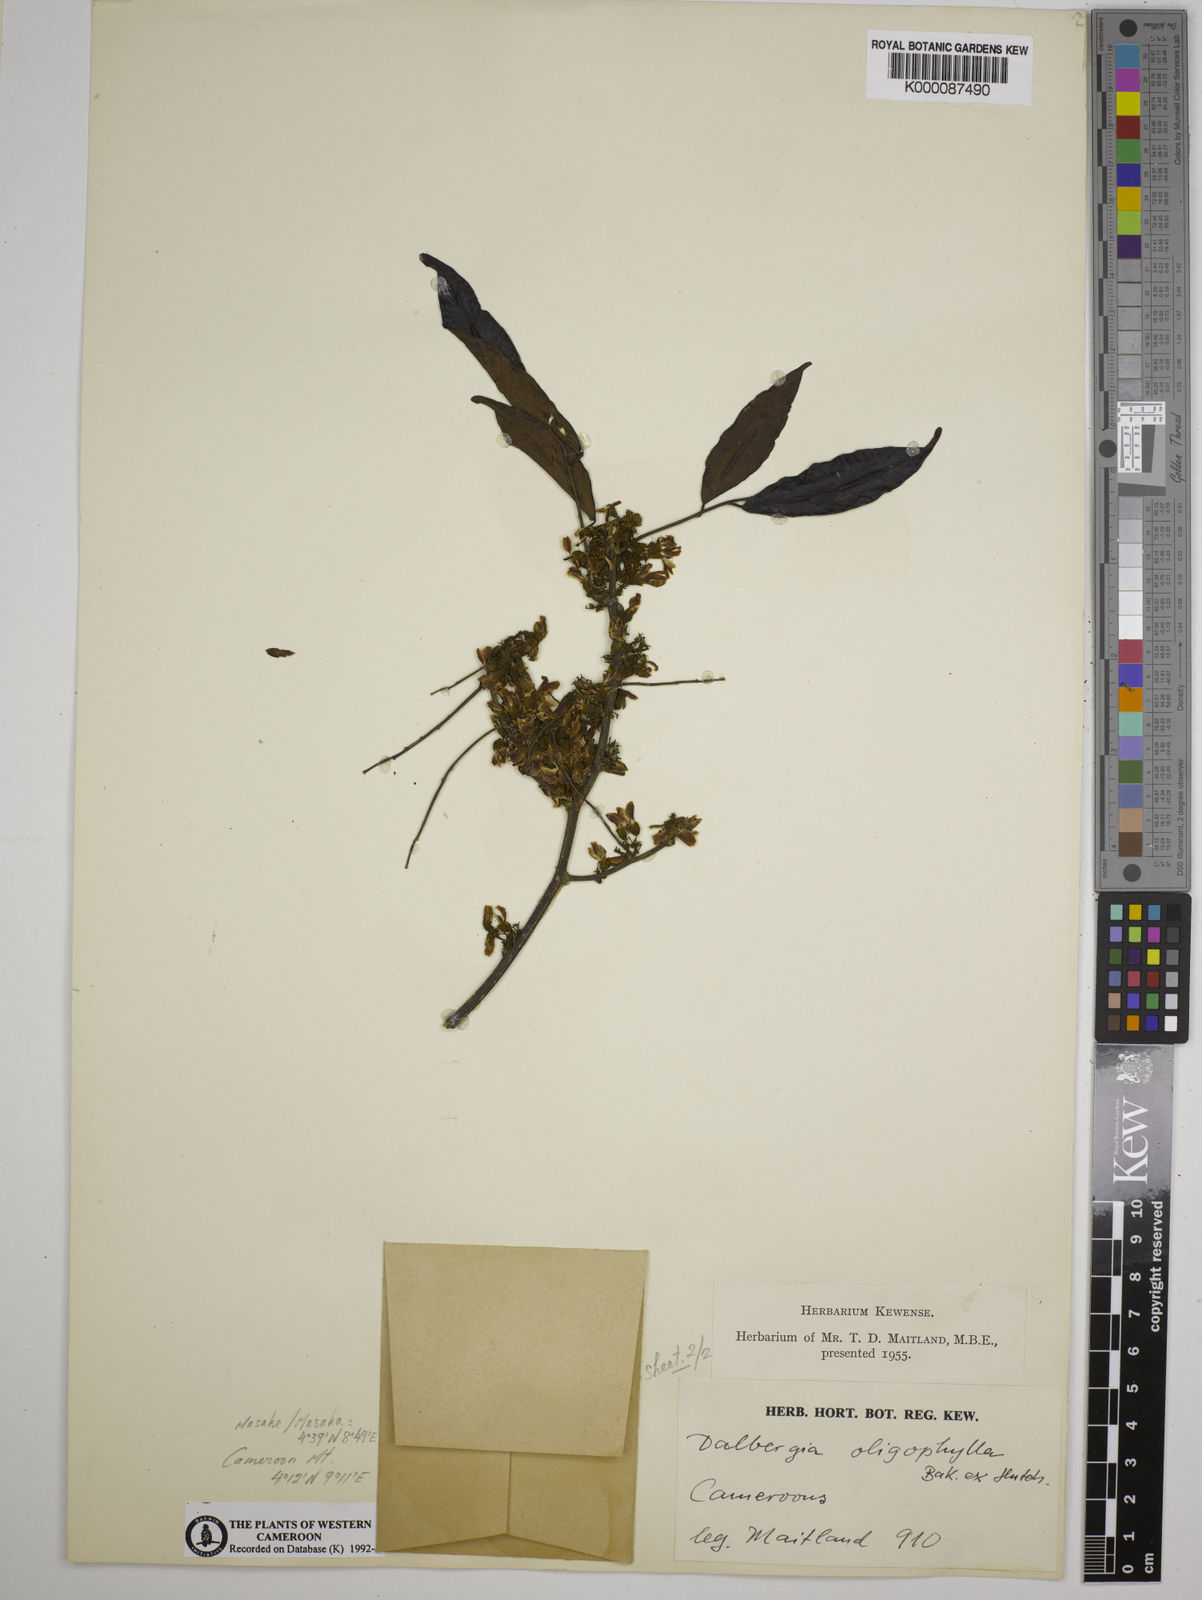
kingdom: Plantae
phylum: Tracheophyta
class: Magnoliopsida
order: Fabales
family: Fabaceae
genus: Dalbergia
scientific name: Dalbergia oligophylla
